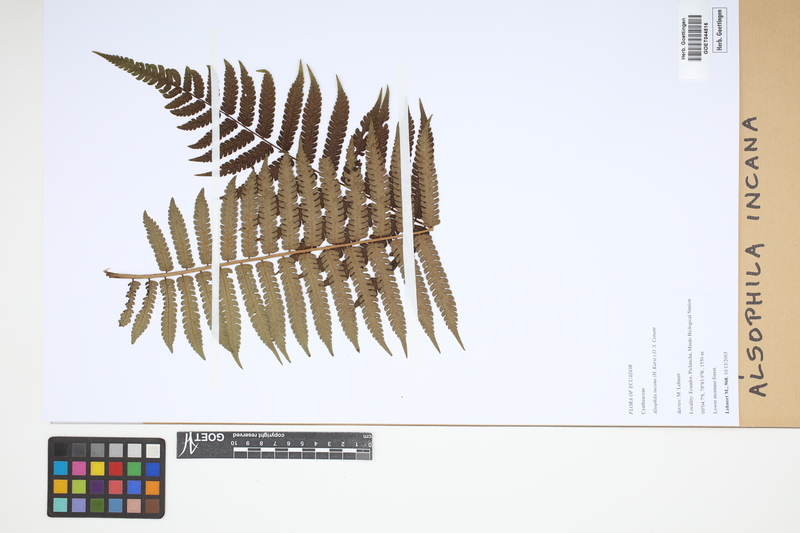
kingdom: Plantae
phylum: Tracheophyta
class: Polypodiopsida
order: Cyatheales
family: Cyatheaceae
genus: Alsophila
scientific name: Alsophila incana
